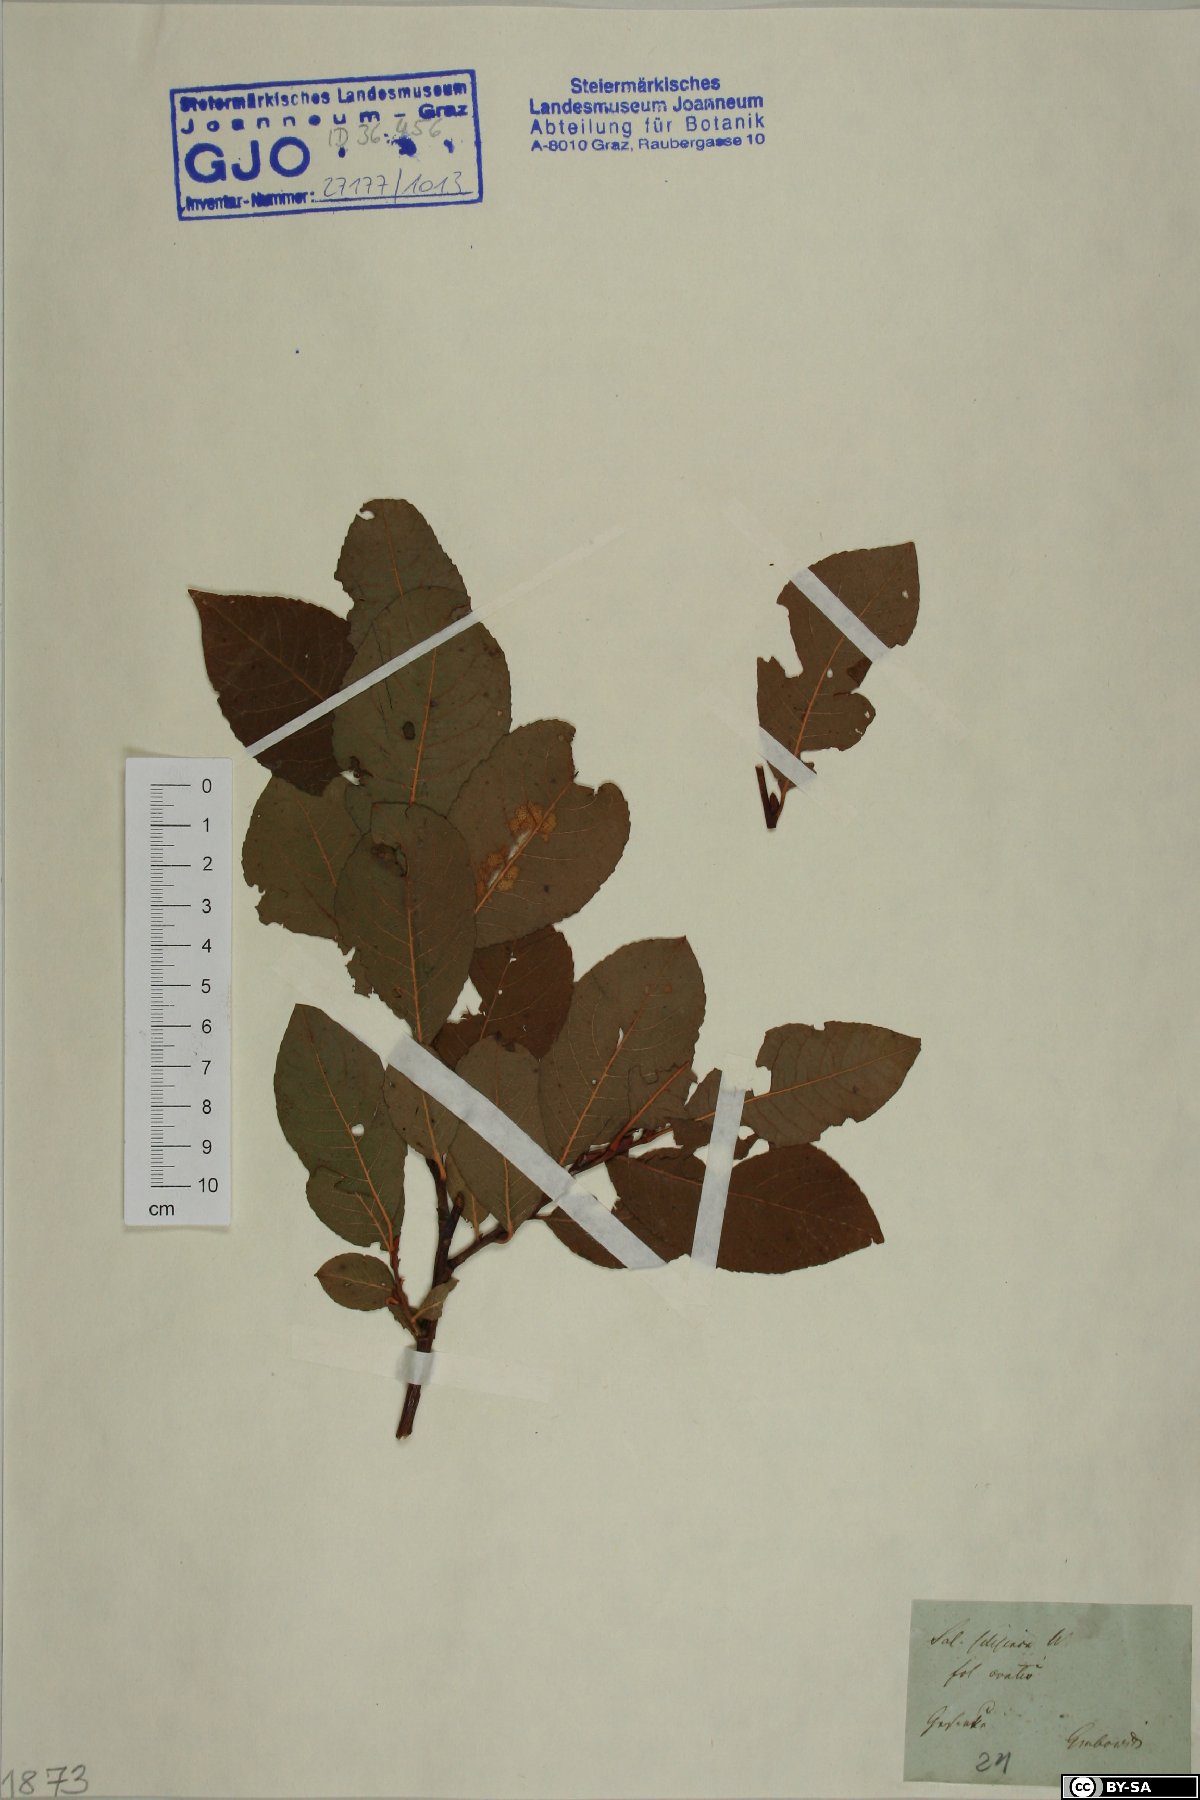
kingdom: Plantae
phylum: Tracheophyta
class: Magnoliopsida
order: Malpighiales
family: Salicaceae
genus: Salix
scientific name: Salix silesiaca
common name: Silesian willow
